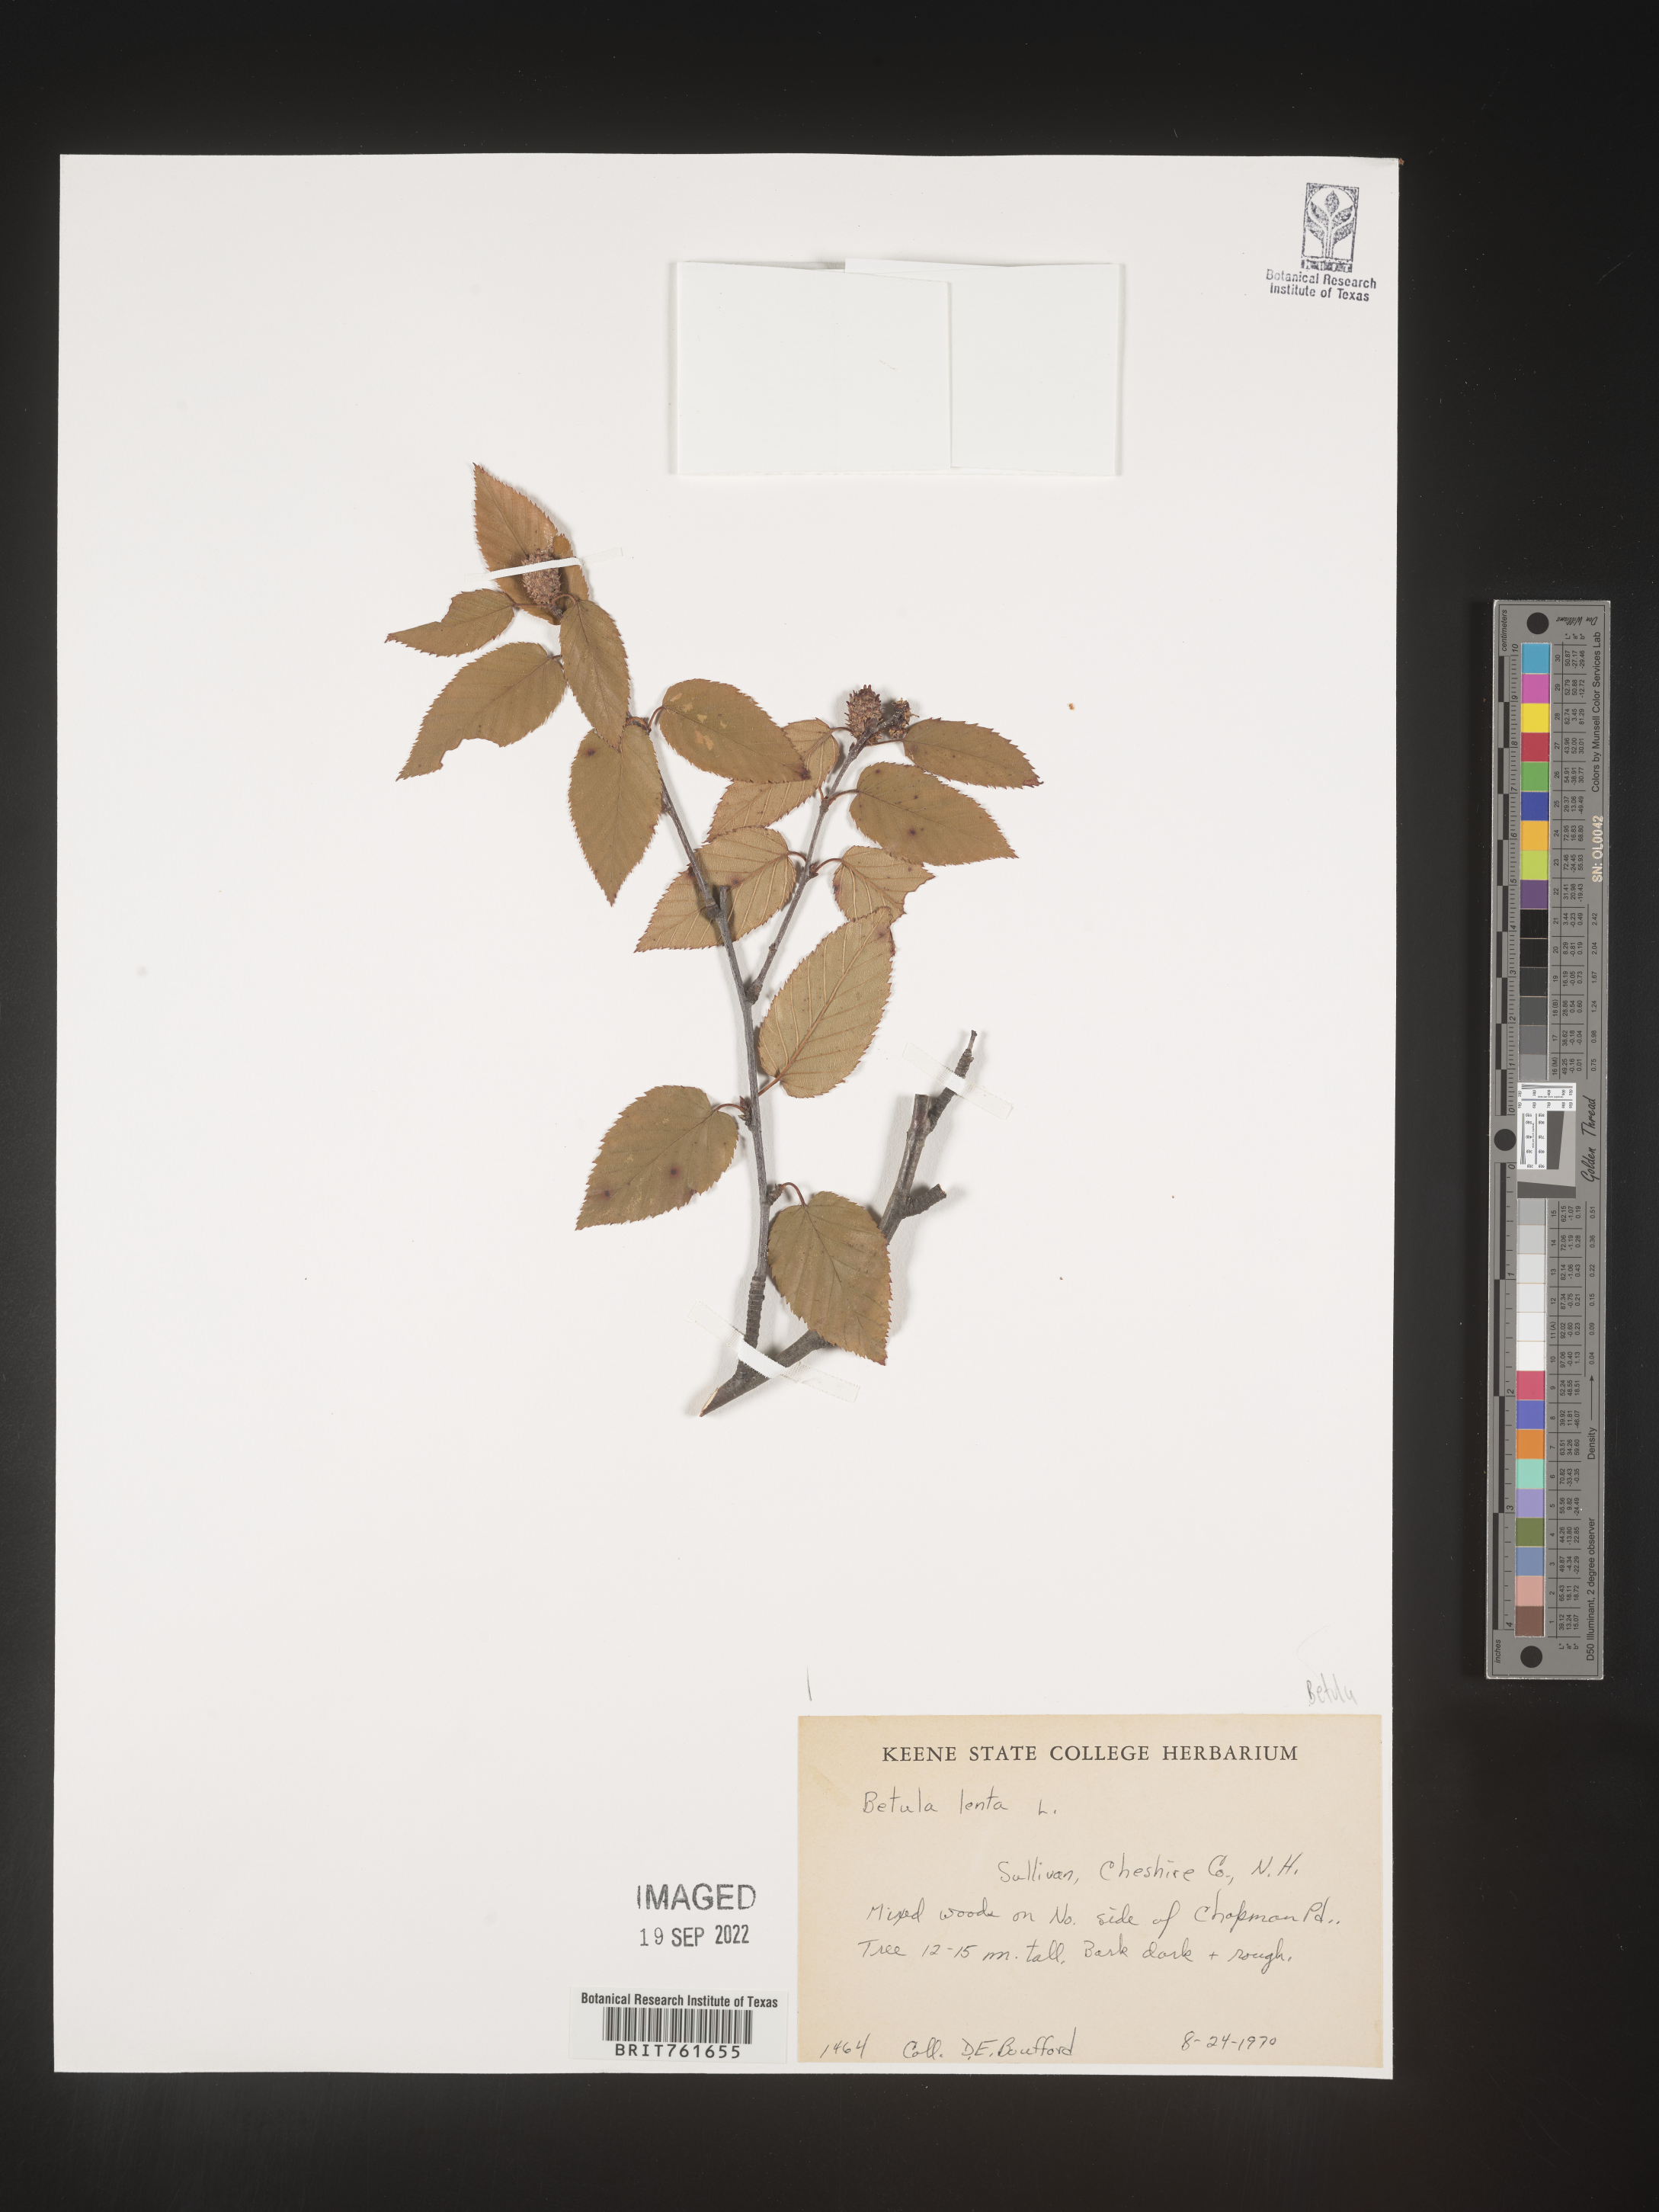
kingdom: Plantae
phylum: Tracheophyta
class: Magnoliopsida
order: Fagales
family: Betulaceae
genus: Betula
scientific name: Betula lenta
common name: Black birch
